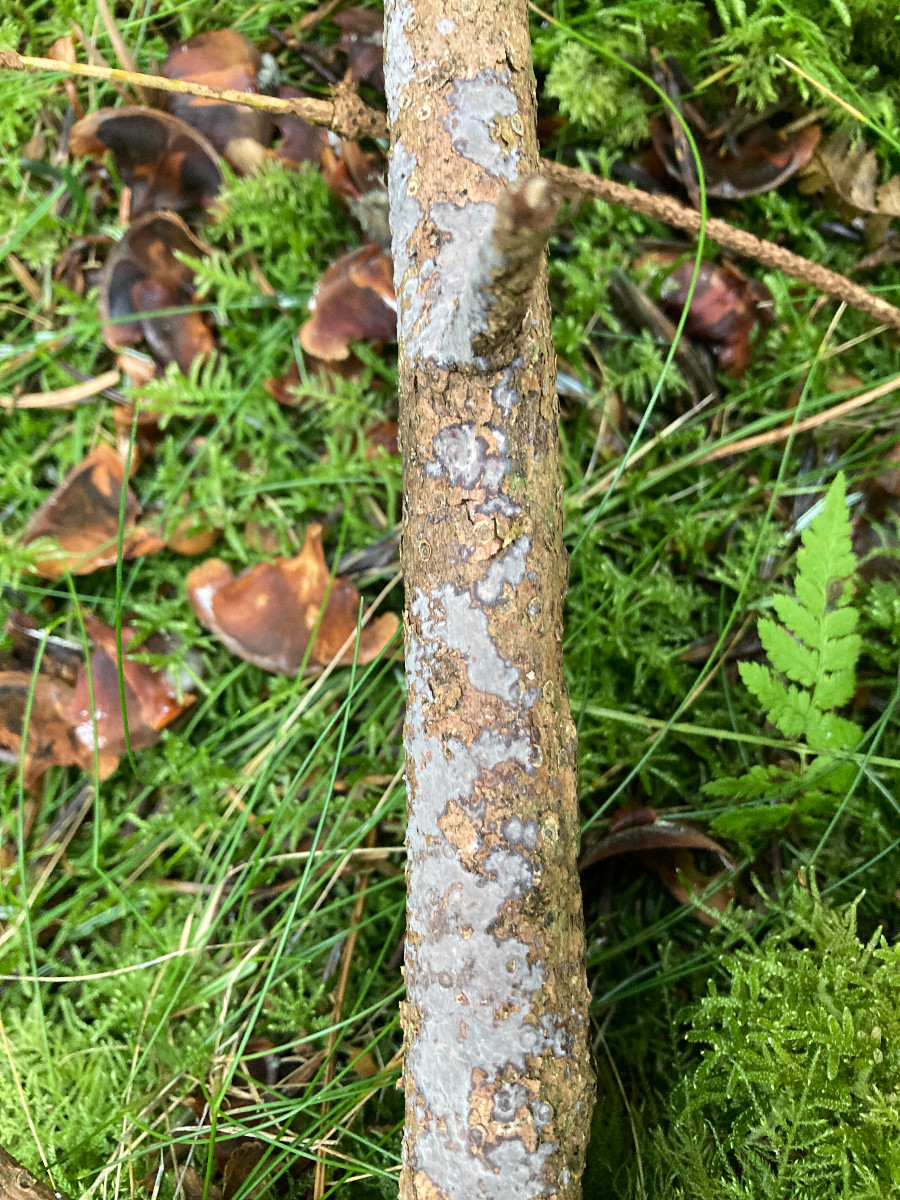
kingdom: Fungi
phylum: Basidiomycota
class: Agaricomycetes
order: Sebacinales
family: Sebacinaceae
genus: Sebacina
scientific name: Sebacina grisea
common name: blågrå bævrehinde
